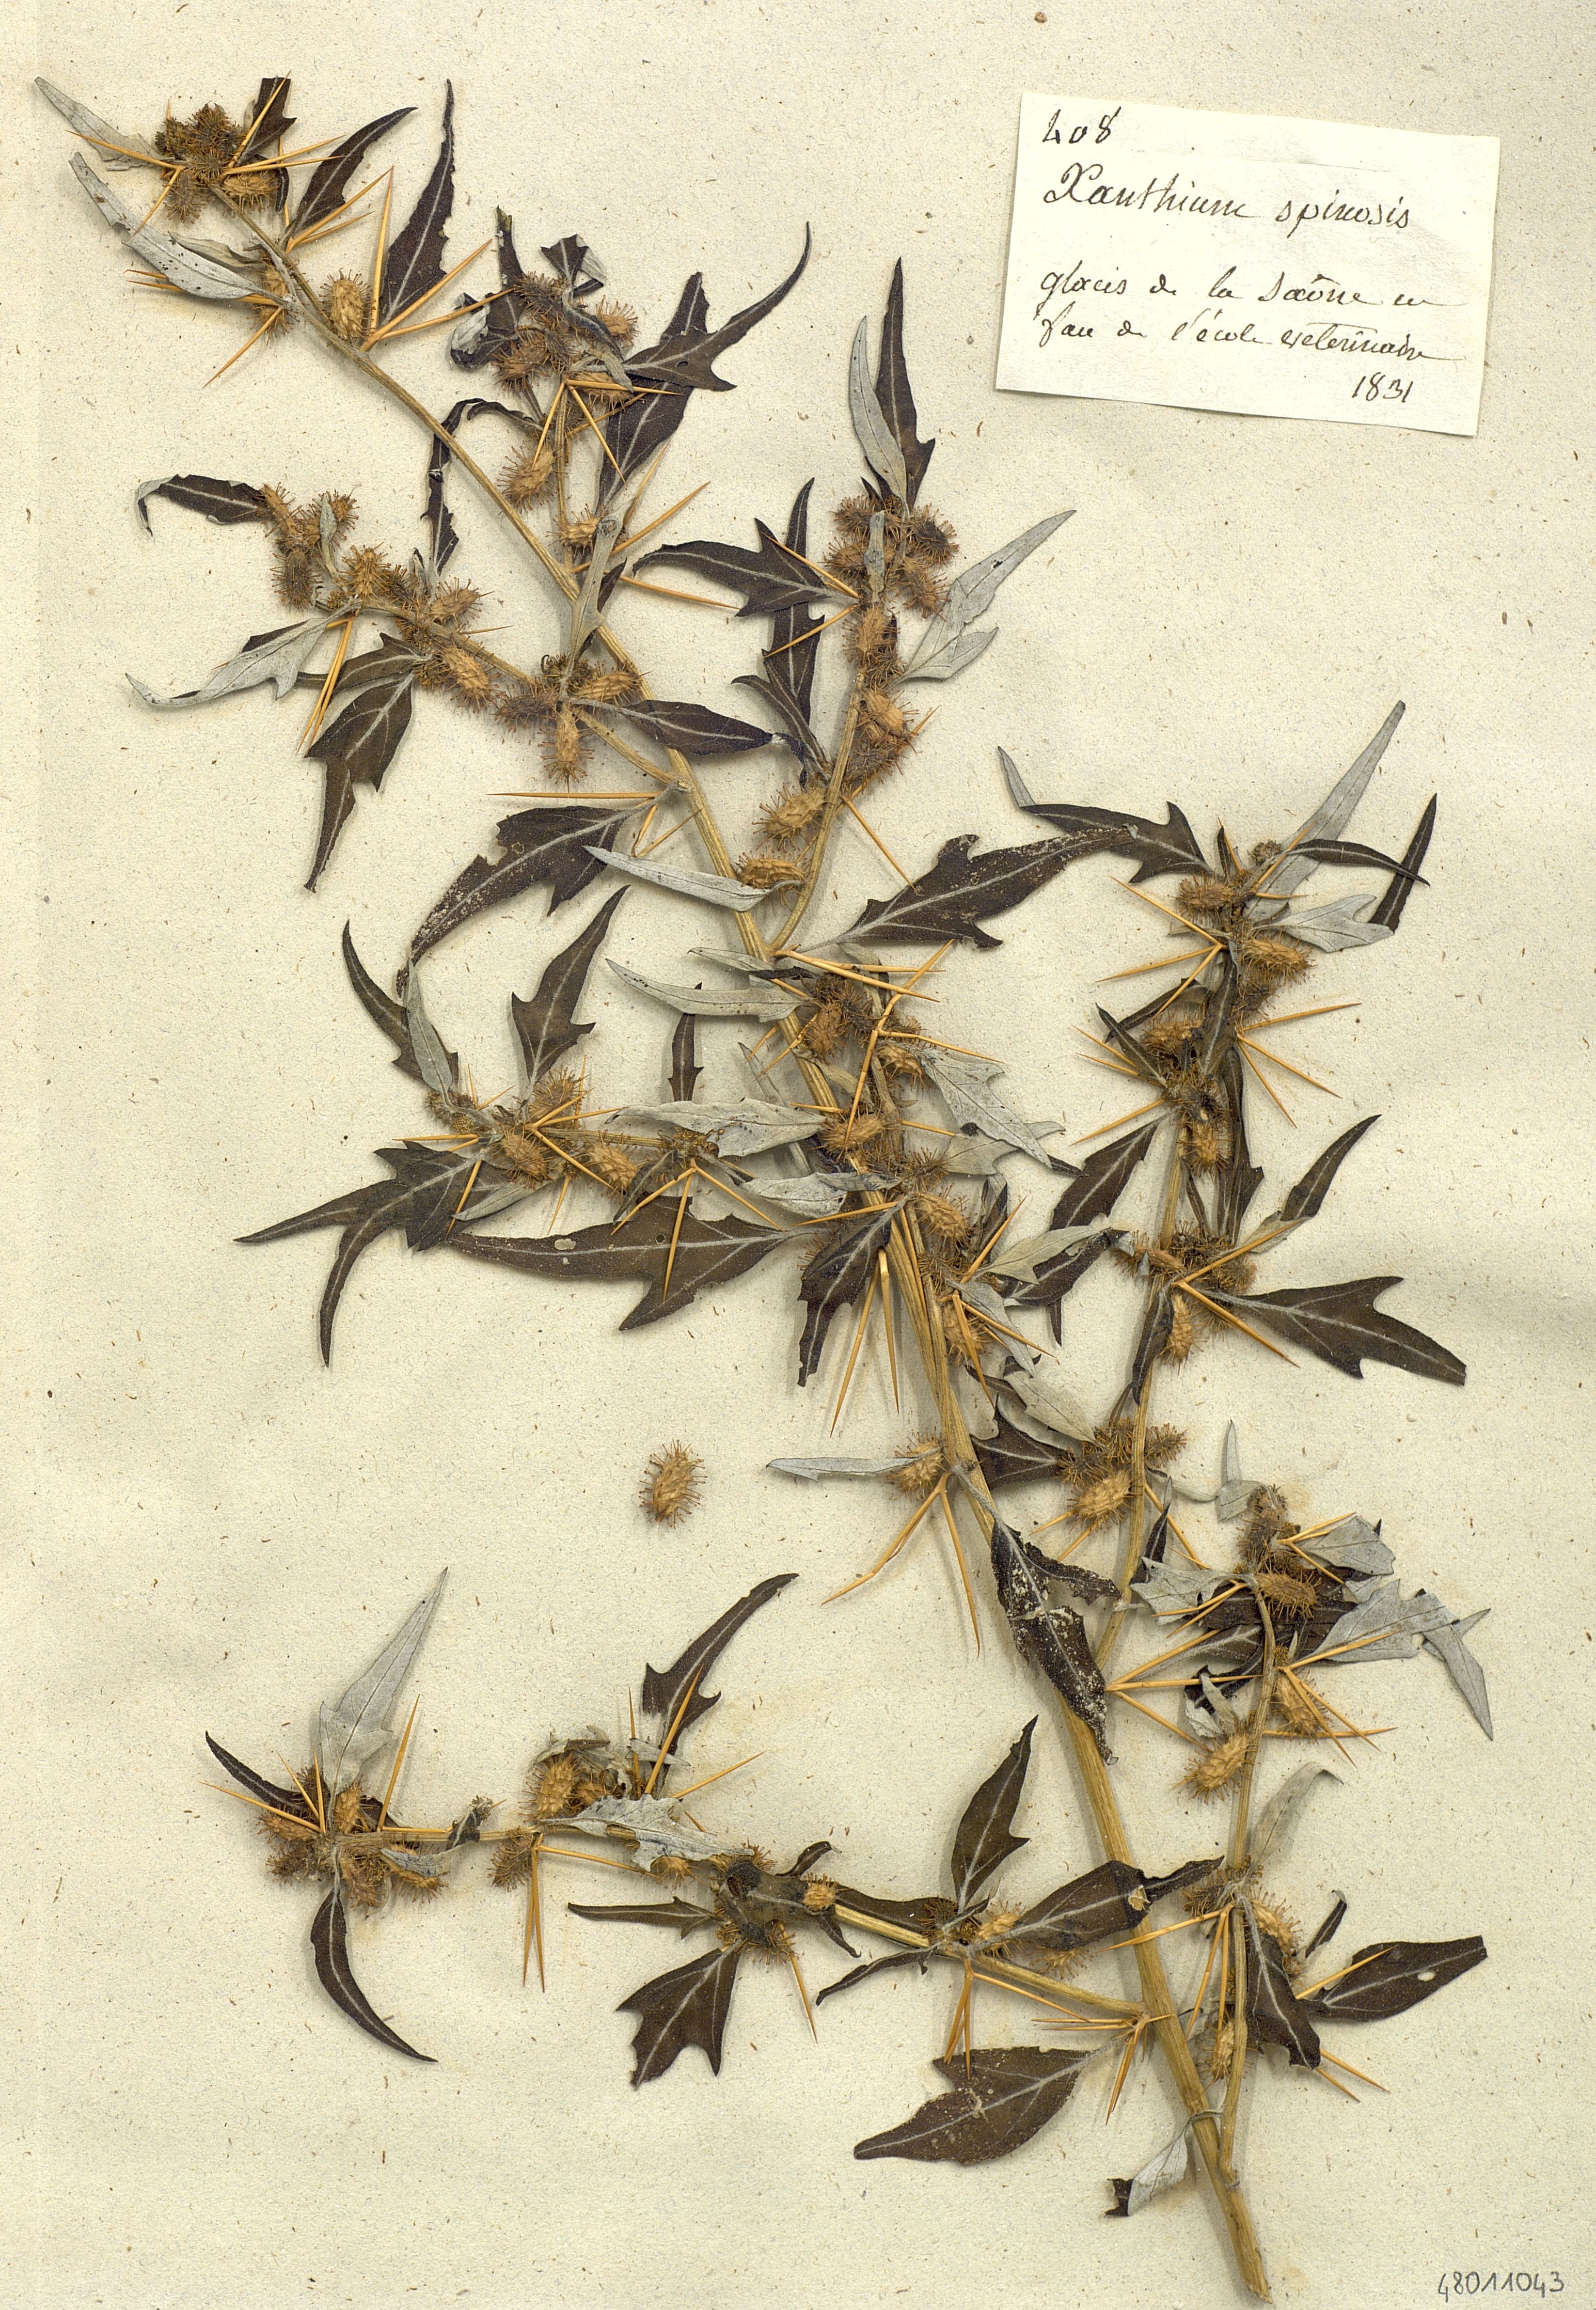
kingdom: Plantae
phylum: Tracheophyta
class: Magnoliopsida
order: Asterales
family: Asteraceae
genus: Xanthium
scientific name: Xanthium spinosum
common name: Spiny cocklebur
